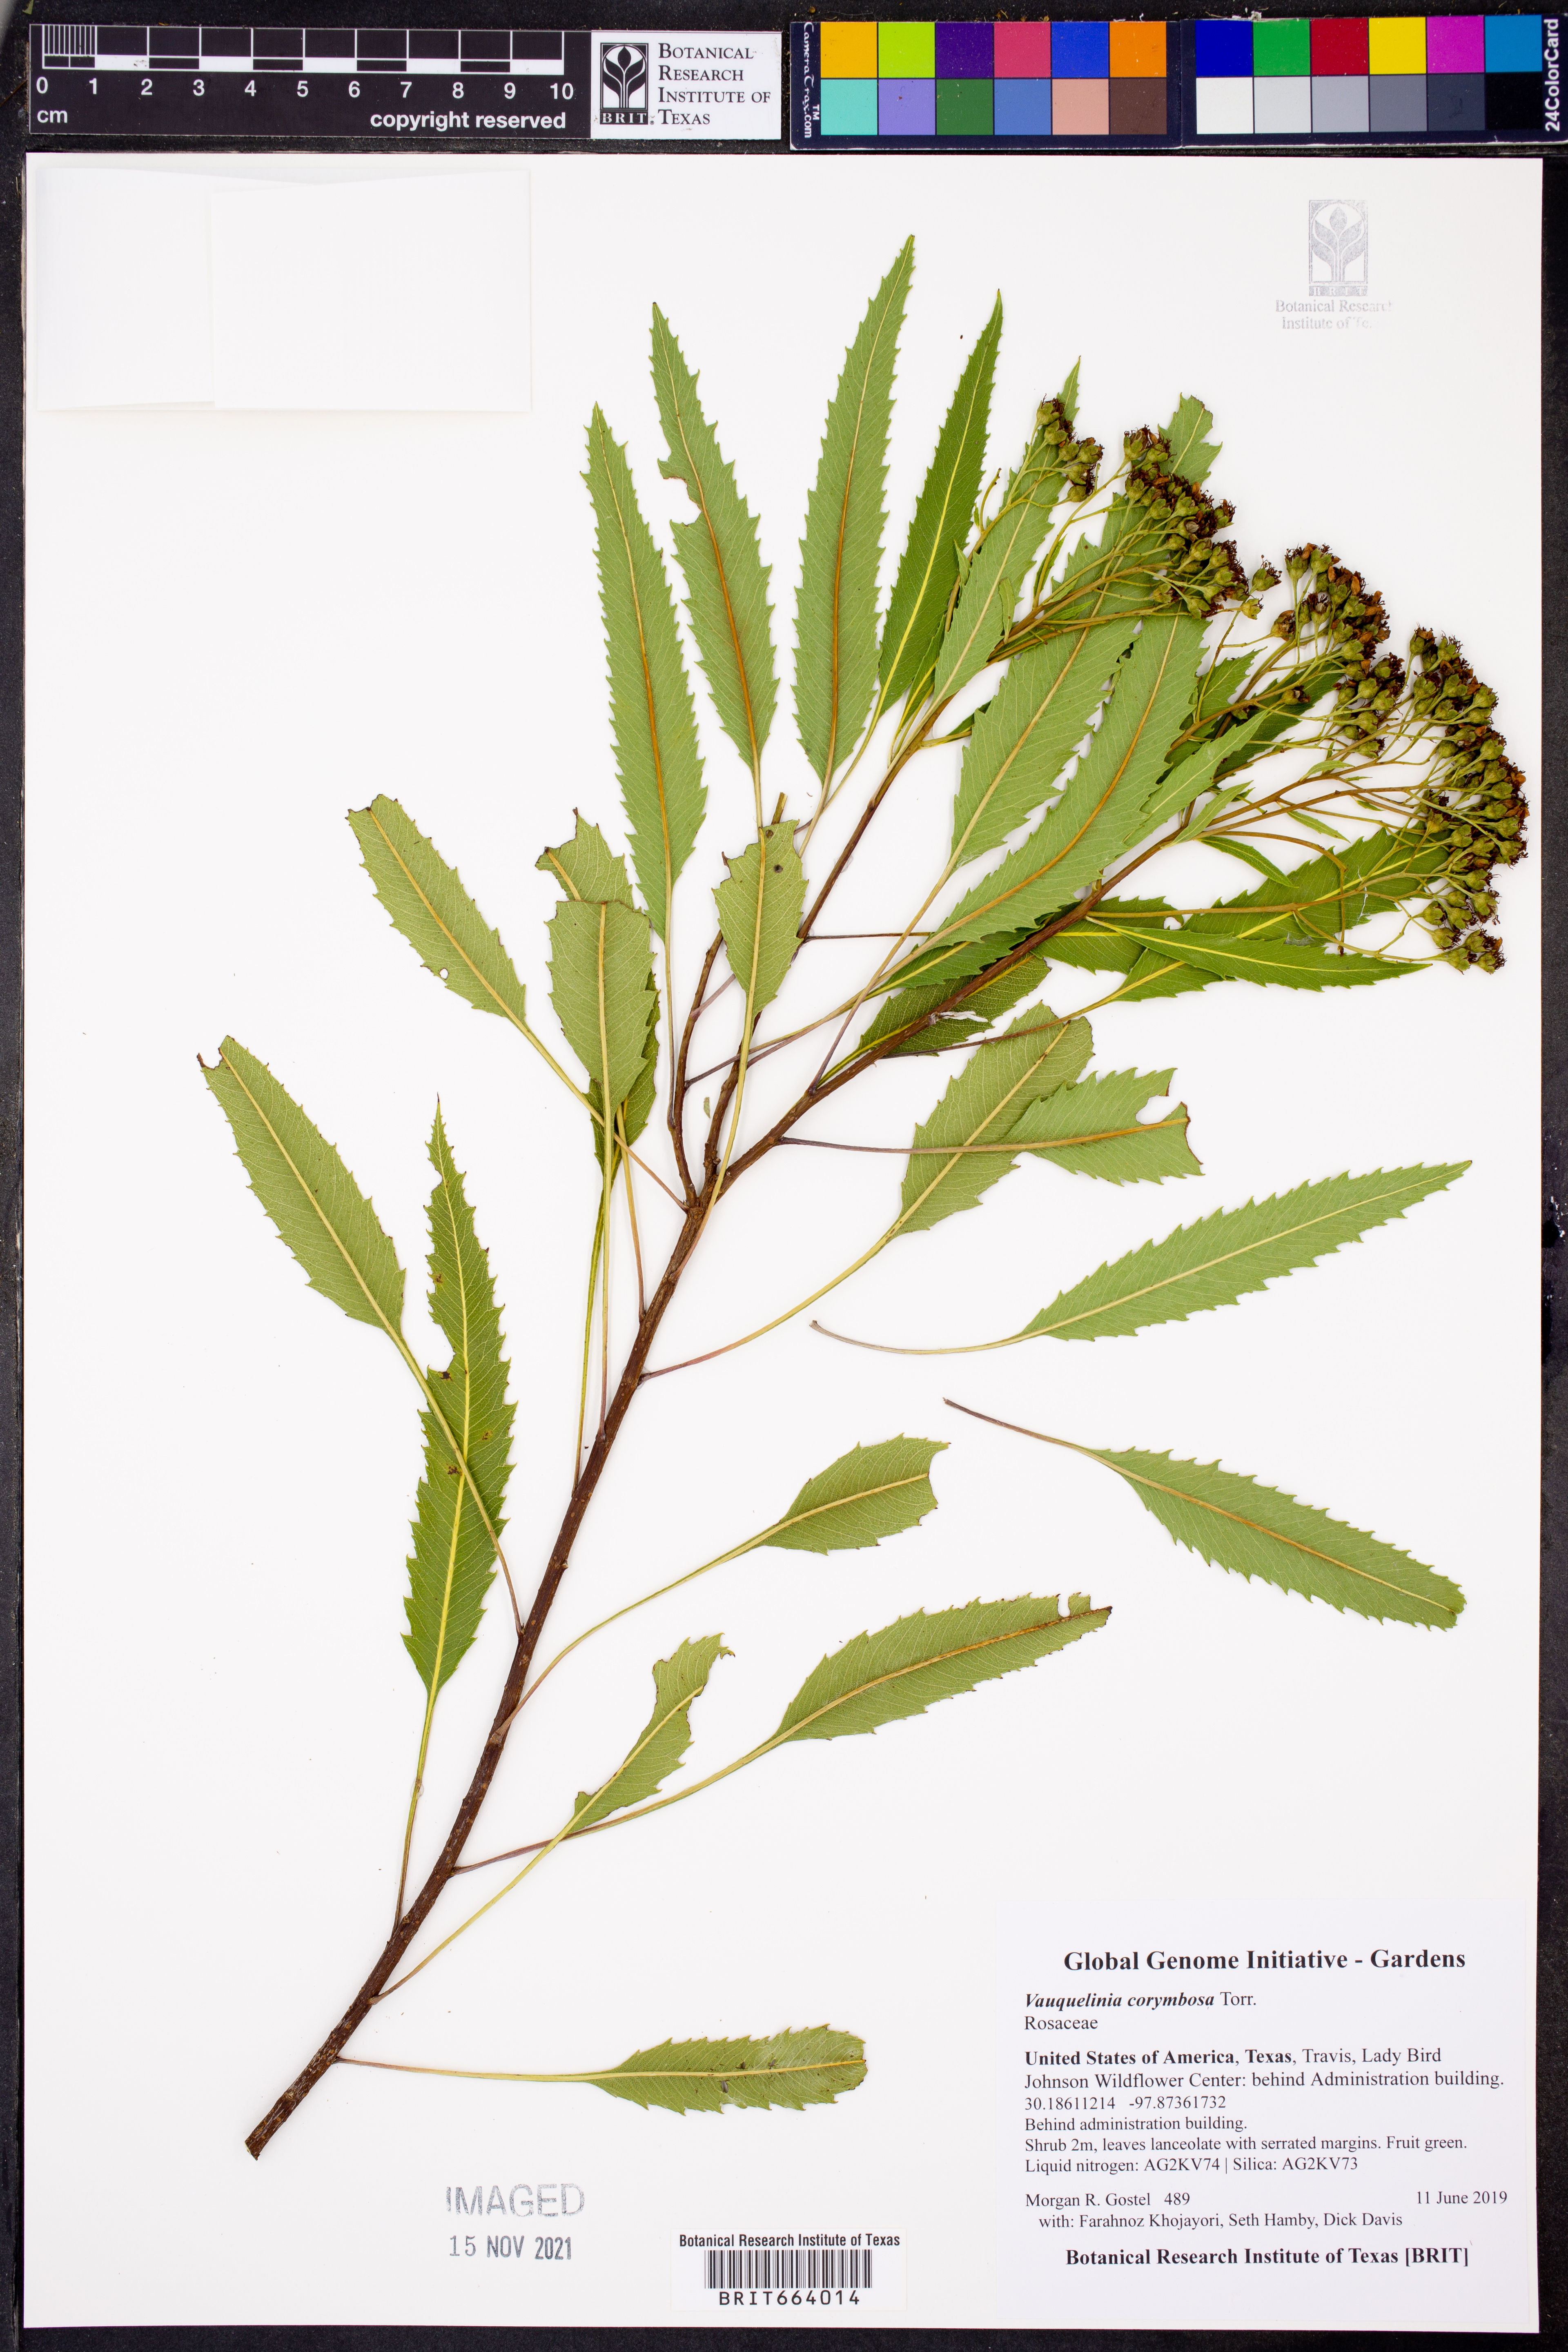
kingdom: Plantae
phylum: Tracheophyta
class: Magnoliopsida
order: Rosales
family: Rosaceae
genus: Vauquelinia
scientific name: Vauquelinia corymbosa
